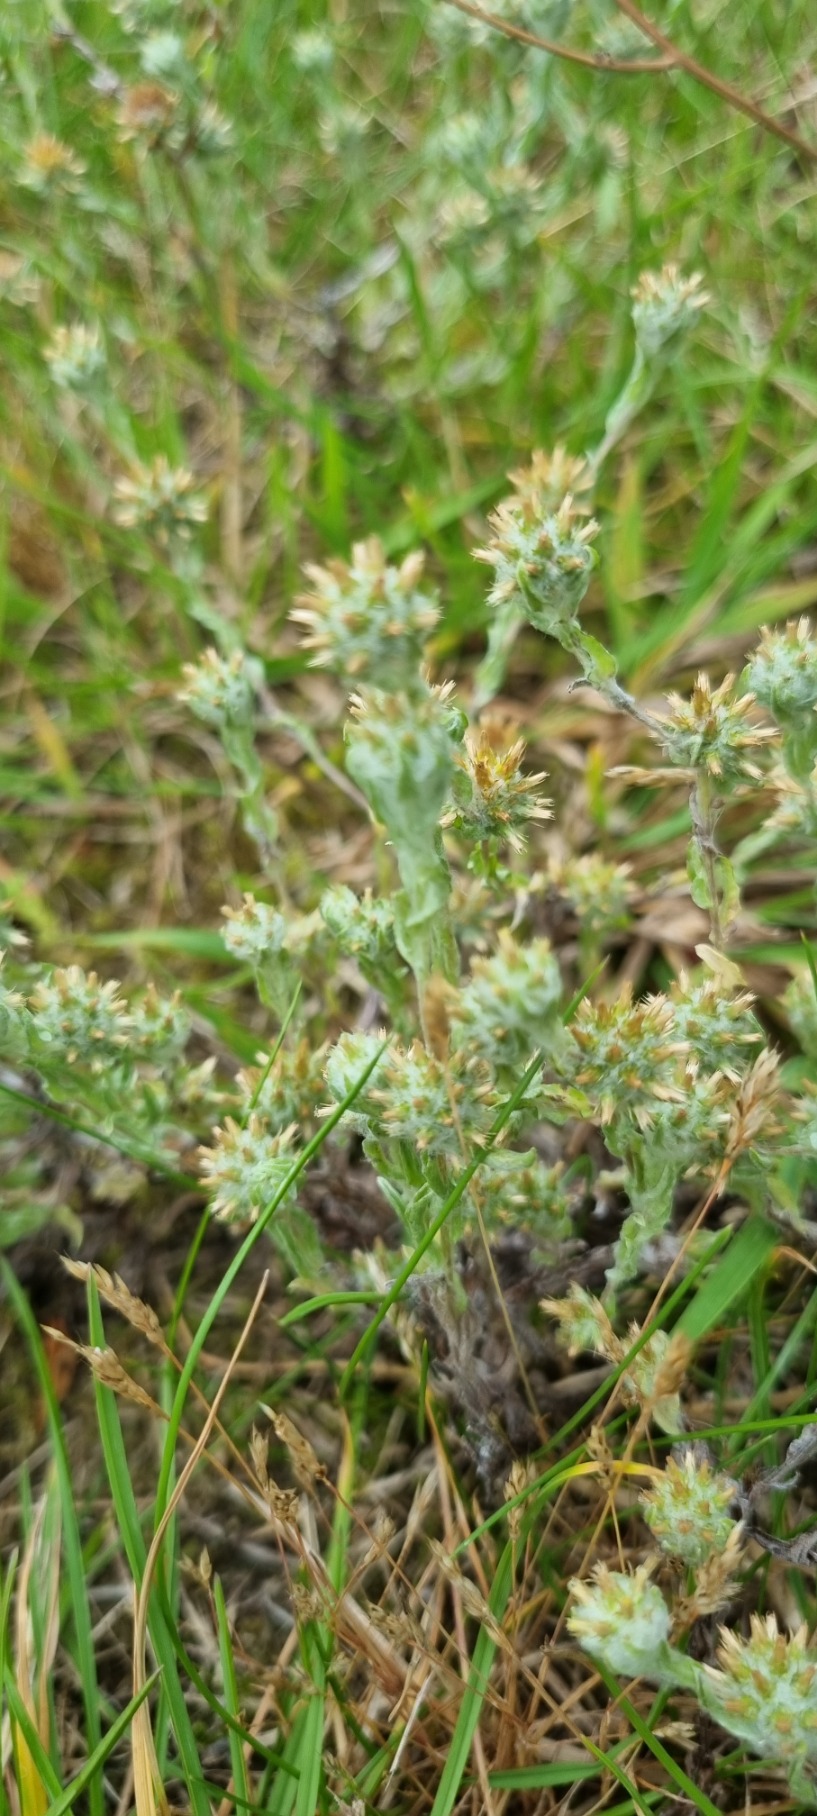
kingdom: Plantae
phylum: Tracheophyta
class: Magnoliopsida
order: Asterales
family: Asteraceae
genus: Filago
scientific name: Filago germanica
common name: Kugle-museurt
